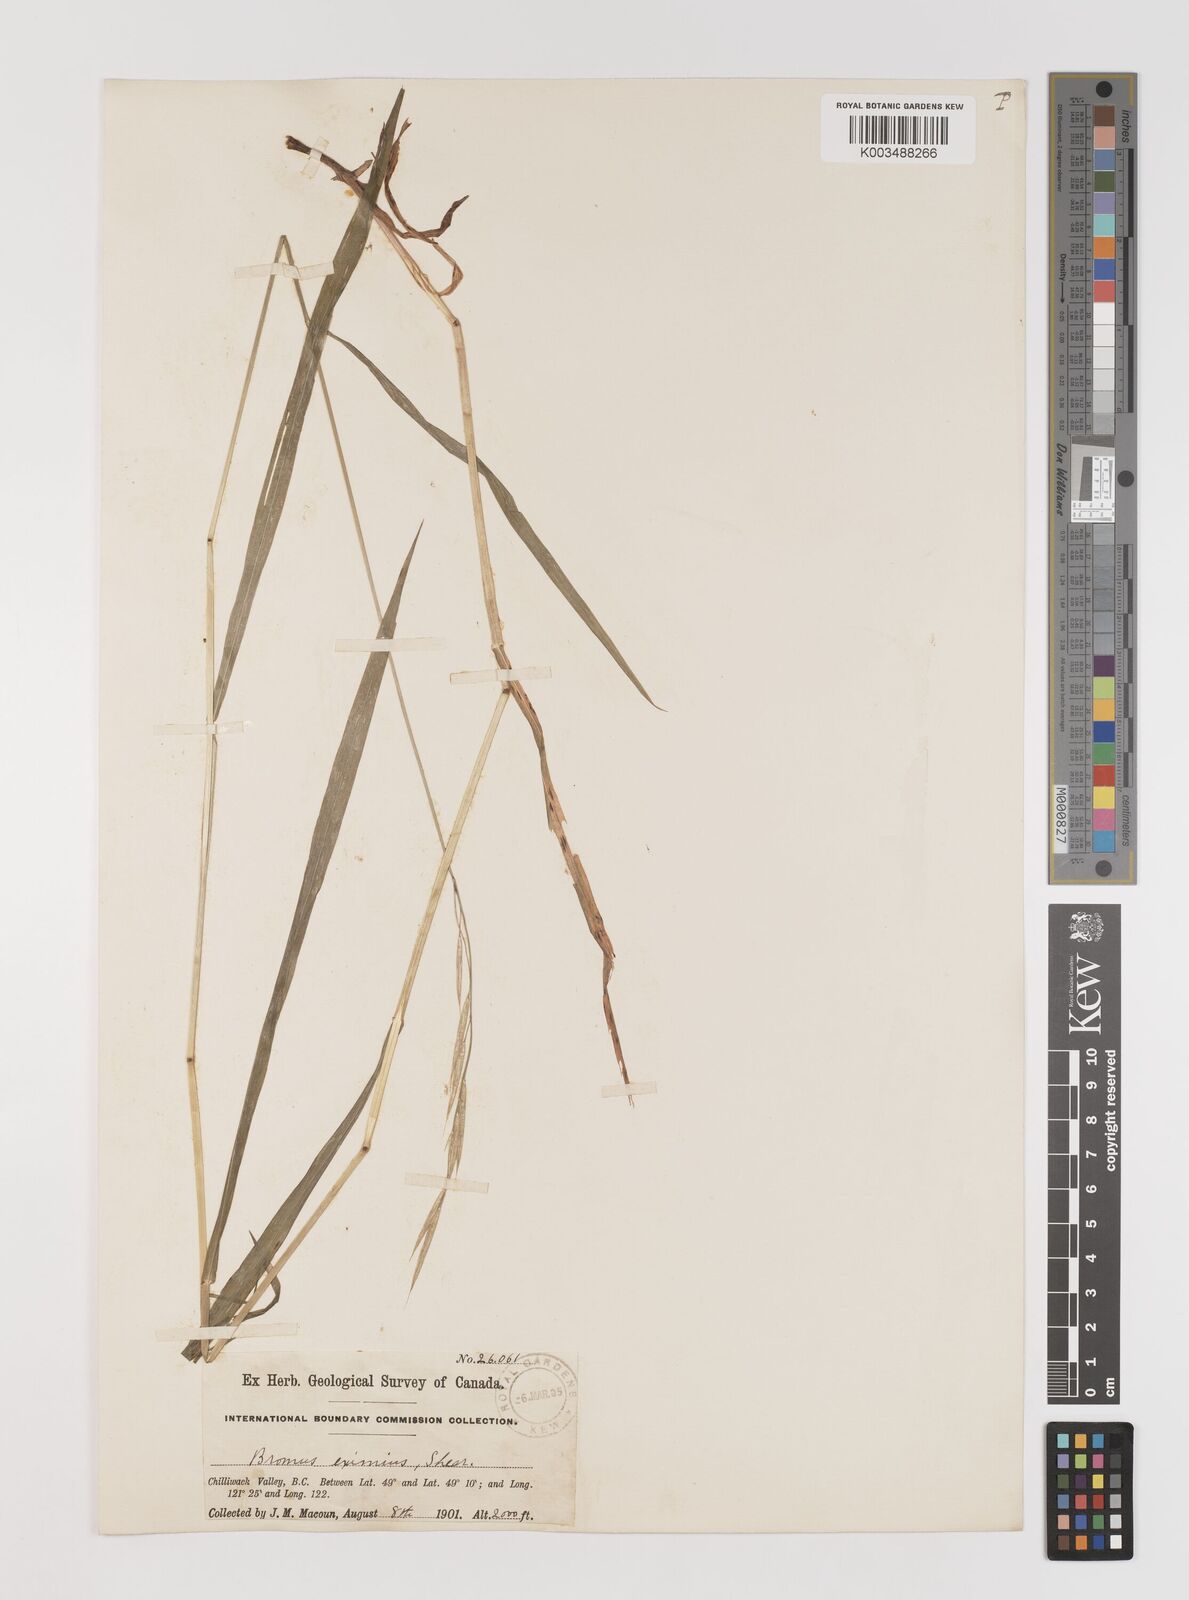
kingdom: Plantae
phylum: Tracheophyta
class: Liliopsida
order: Poales
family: Poaceae
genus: Bromus
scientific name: Bromus vulgaris
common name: Columbia brome
